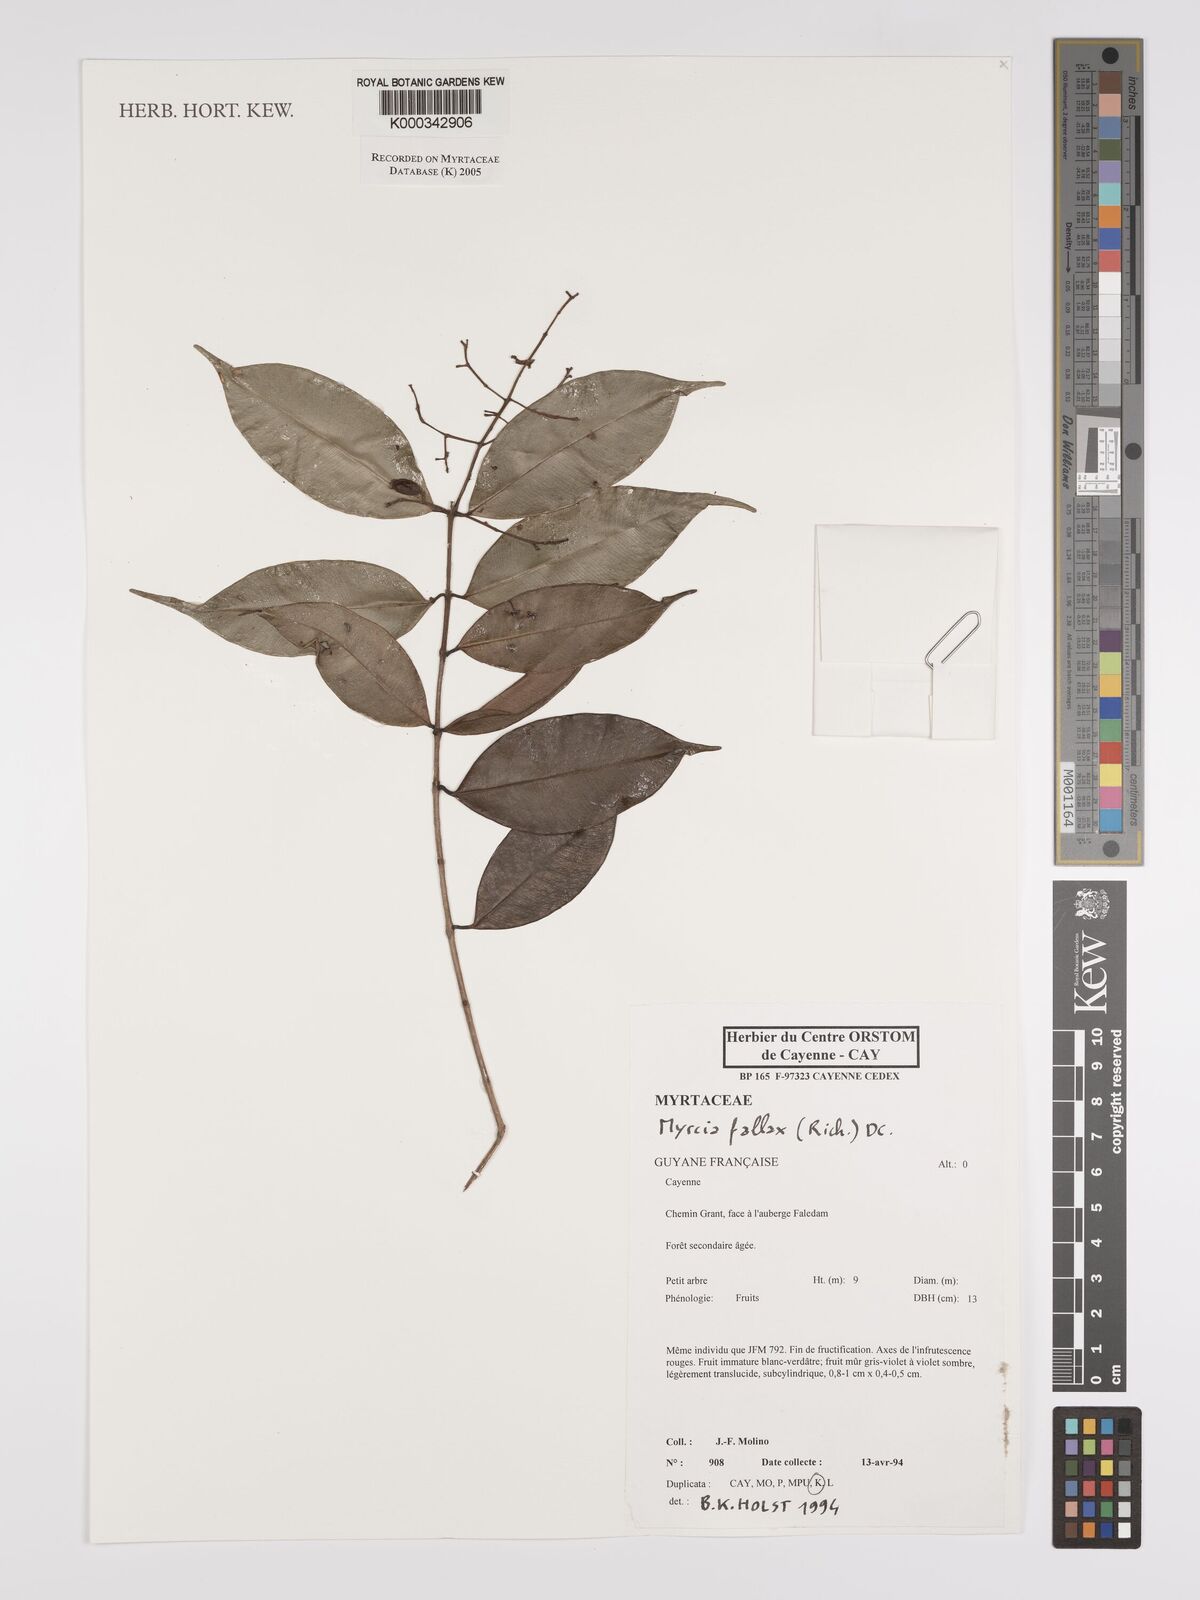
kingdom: Plantae
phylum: Tracheophyta
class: Magnoliopsida
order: Myrtales
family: Myrtaceae
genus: Myrcia
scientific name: Myrcia splendens
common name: Surinam cherry
